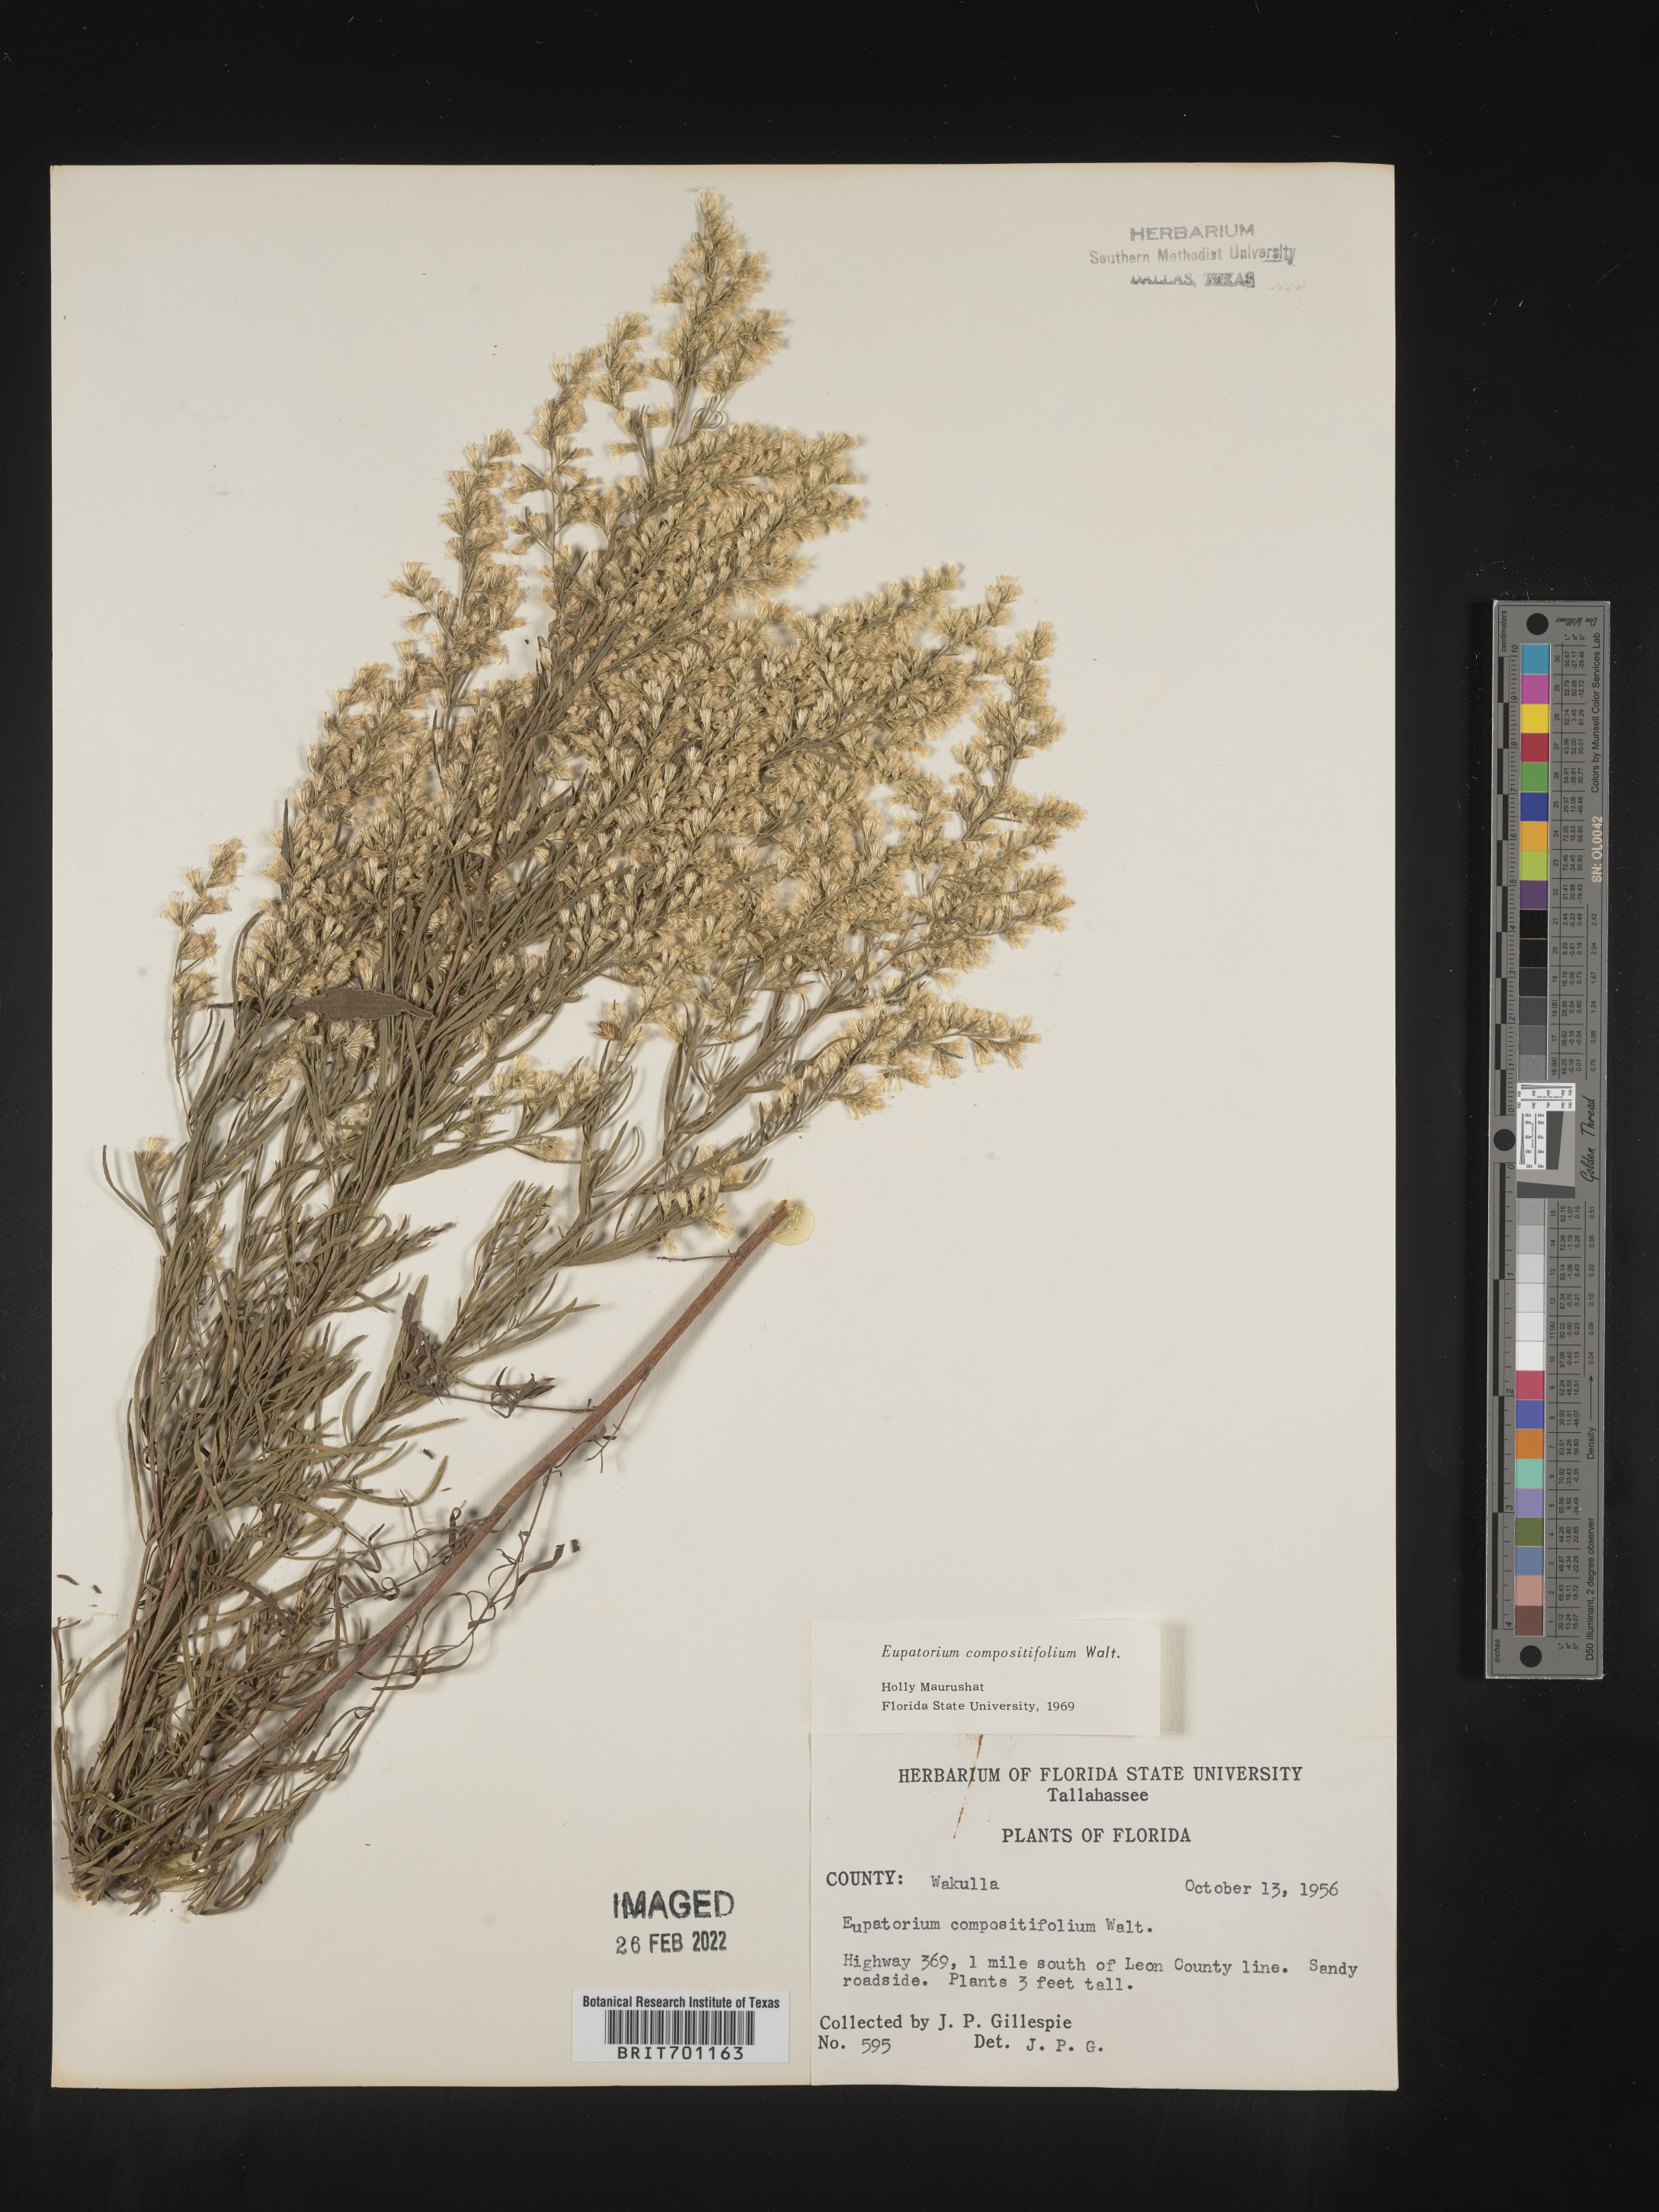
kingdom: Plantae
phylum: Tracheophyta
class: Magnoliopsida
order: Asterales
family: Asteraceae
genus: Eupatorium
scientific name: Eupatorium compositifolium
